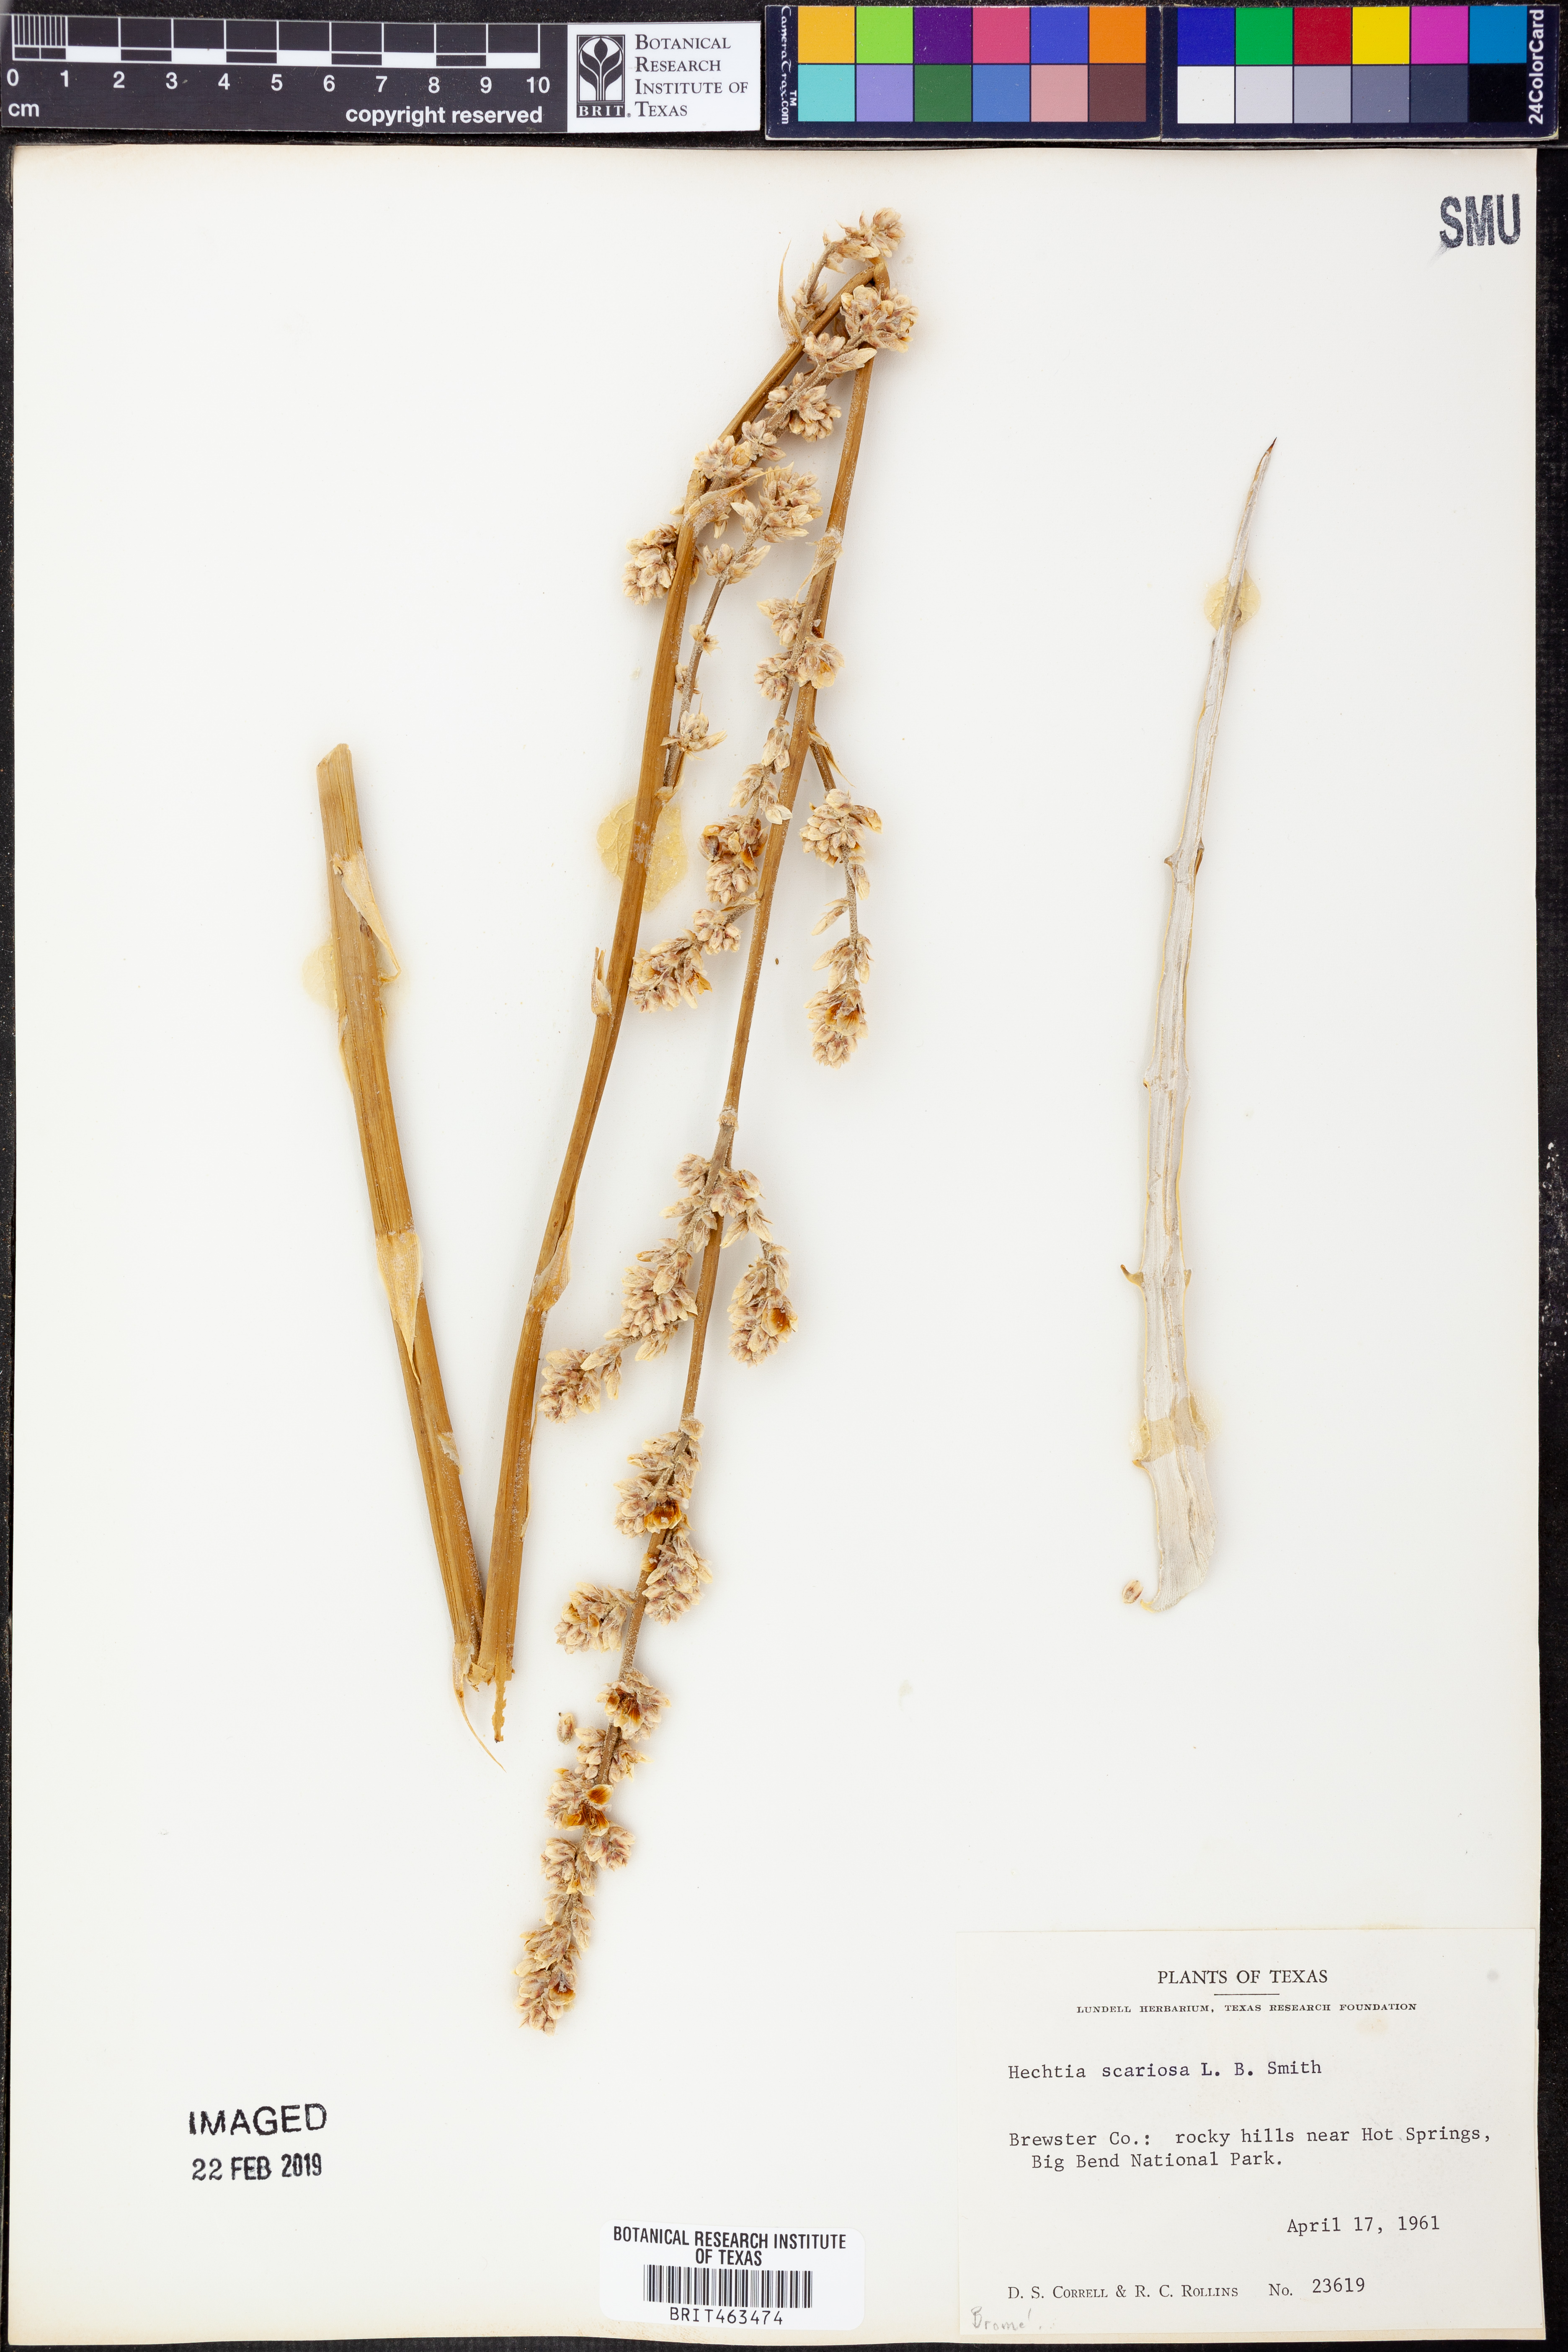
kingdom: Plantae
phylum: Tracheophyta
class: Liliopsida
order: Poales
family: Bromeliaceae
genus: Hechtia
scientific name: Hechtia texensis
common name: False agave
